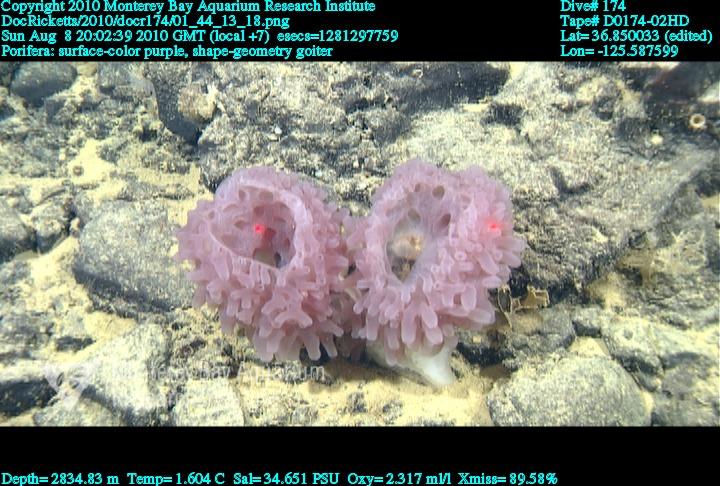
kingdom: Animalia
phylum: Porifera
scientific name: Porifera
